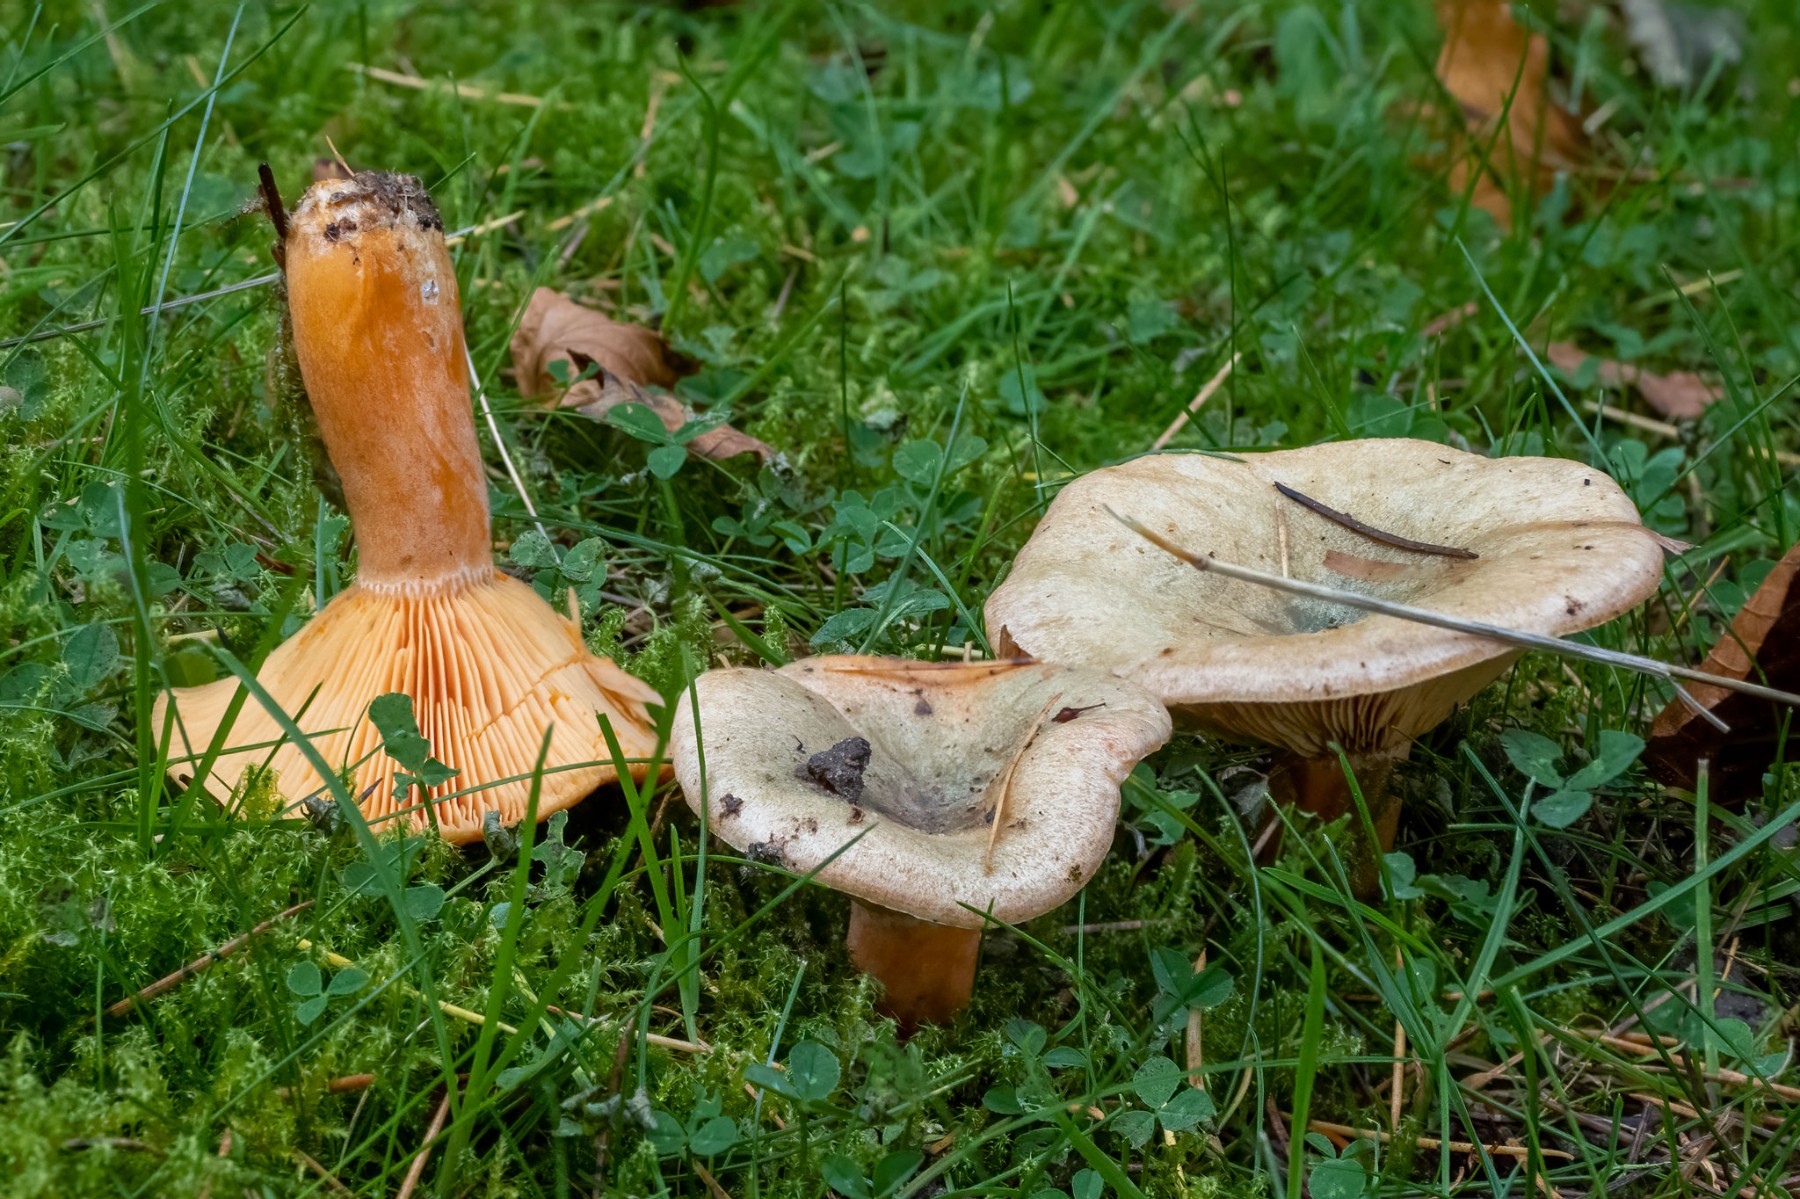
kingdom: Fungi
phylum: Basidiomycota
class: Agaricomycetes
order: Russulales
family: Russulaceae
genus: Lactarius
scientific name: Lactarius deterrimus
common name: gran-mælkehat
